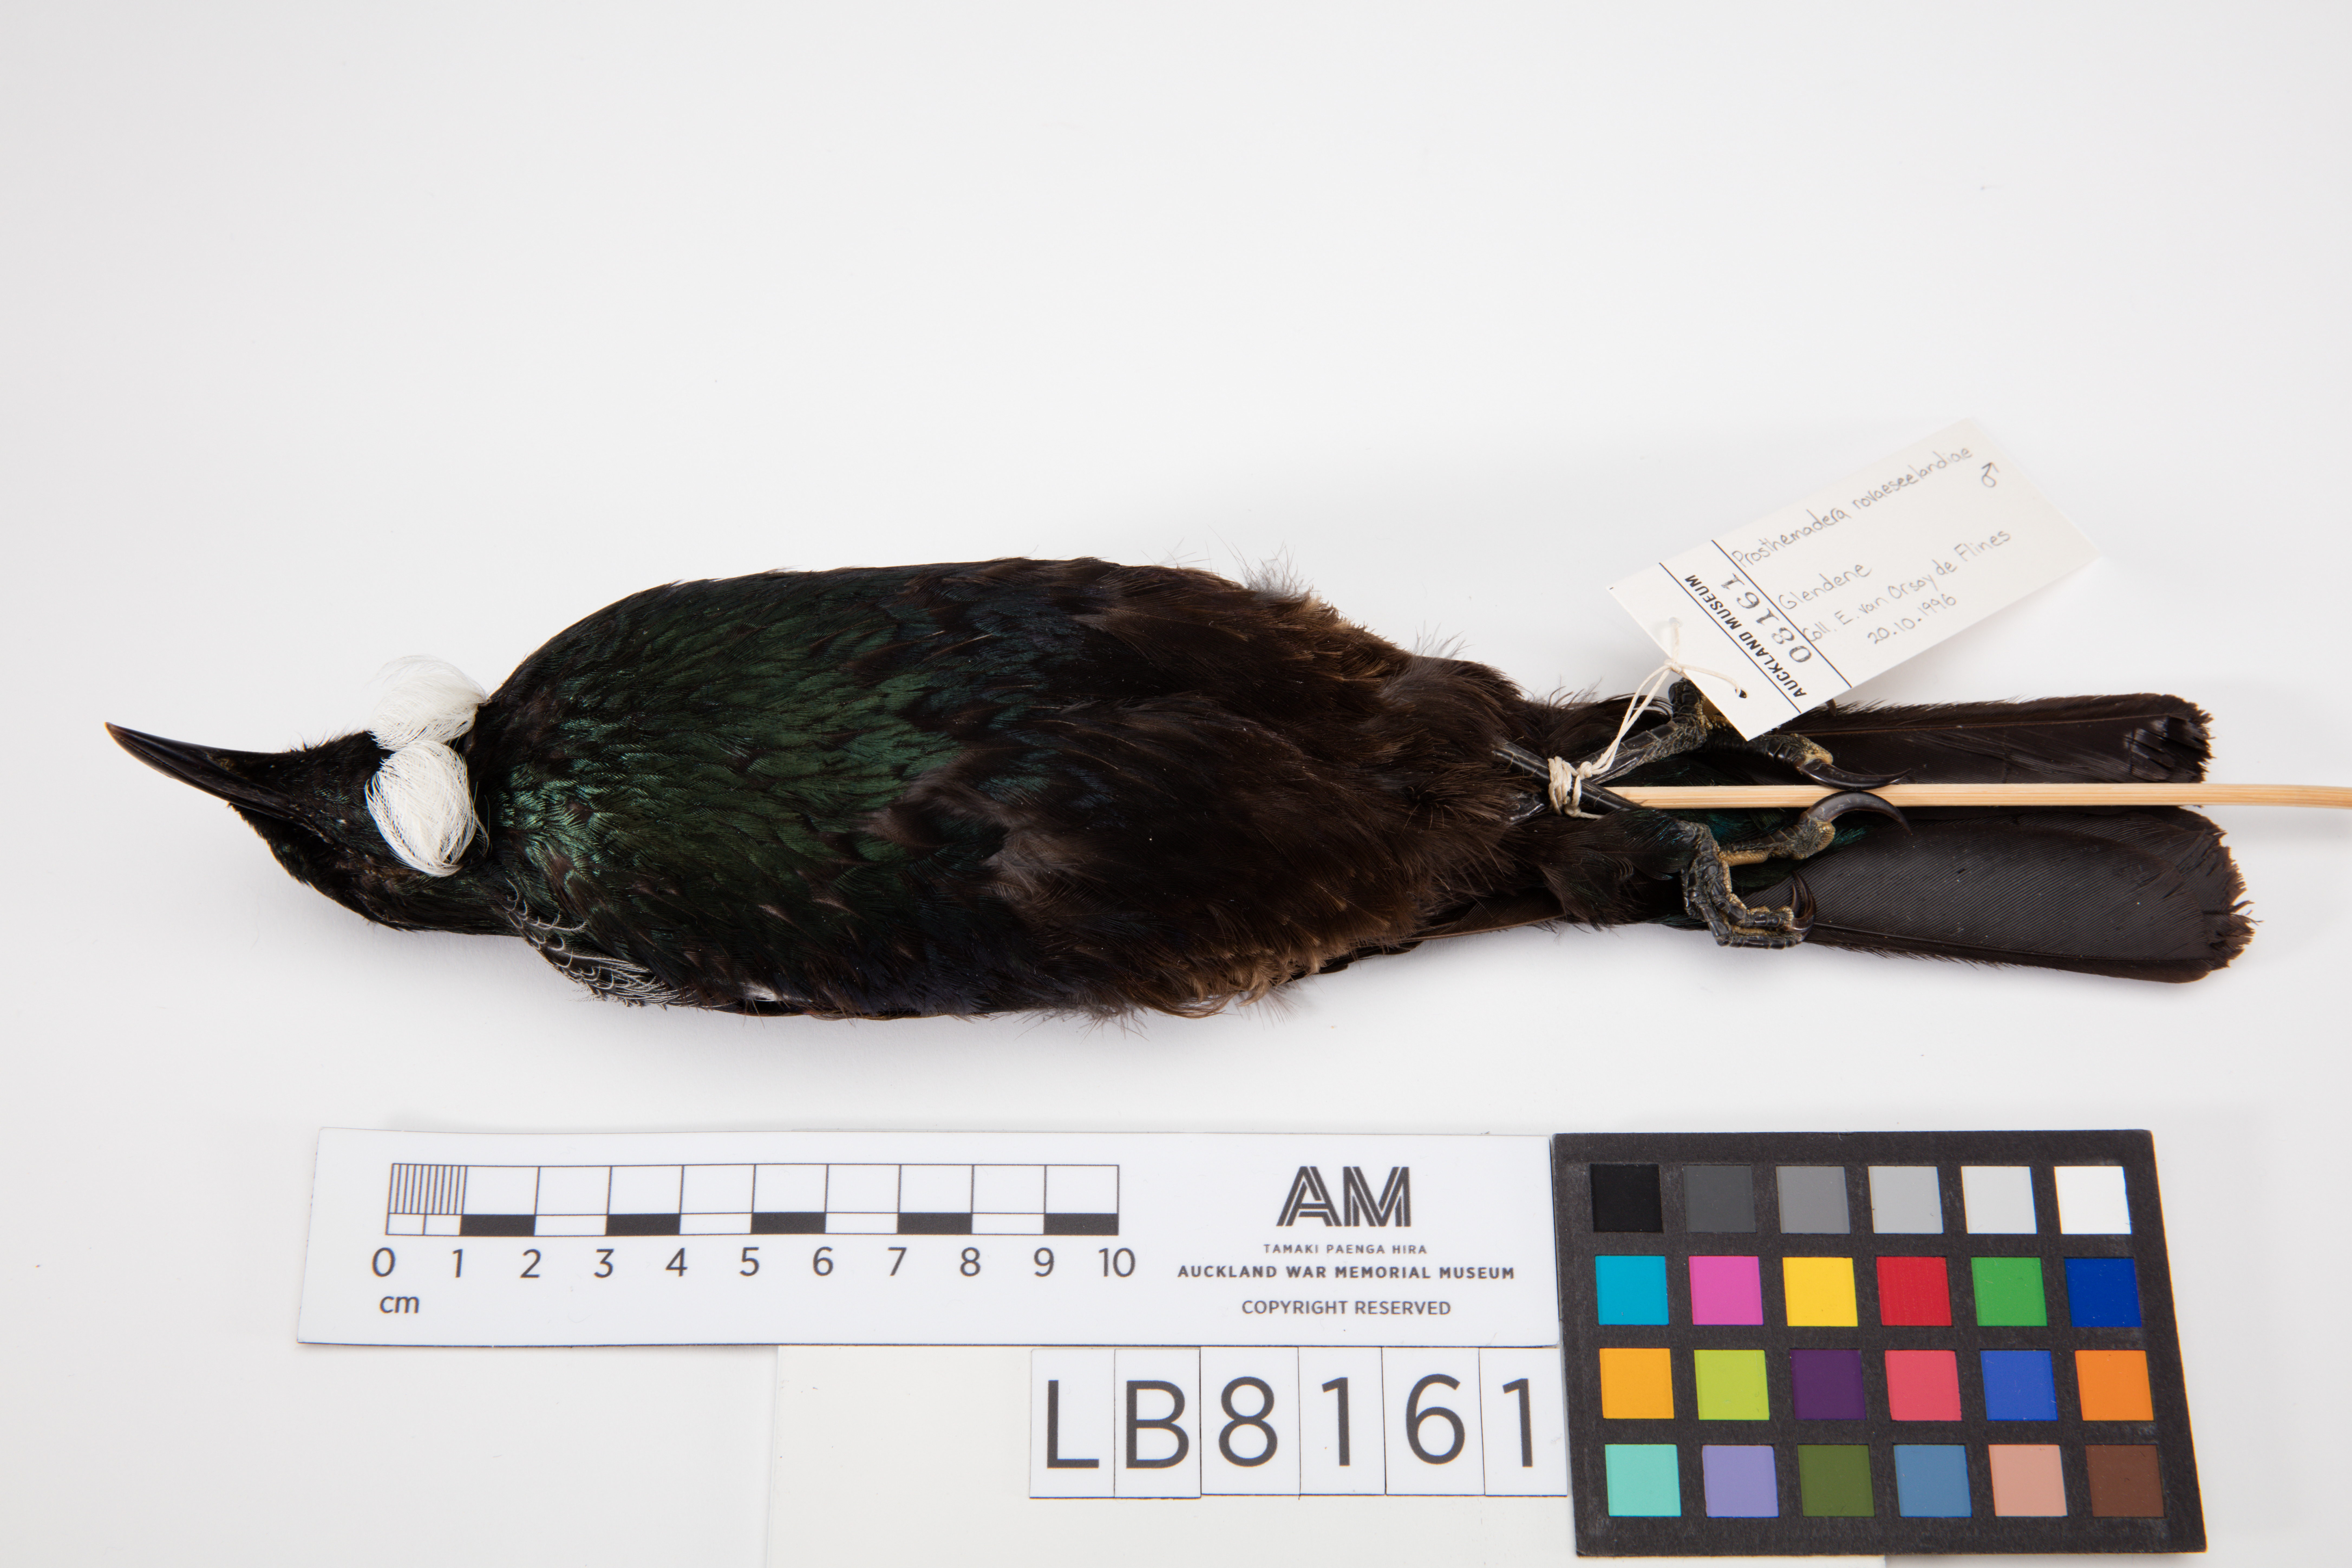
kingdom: Animalia
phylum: Chordata
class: Aves
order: Passeriformes
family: Meliphagidae
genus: Prosthemadera
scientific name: Prosthemadera novaeseelandiae
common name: Tui
